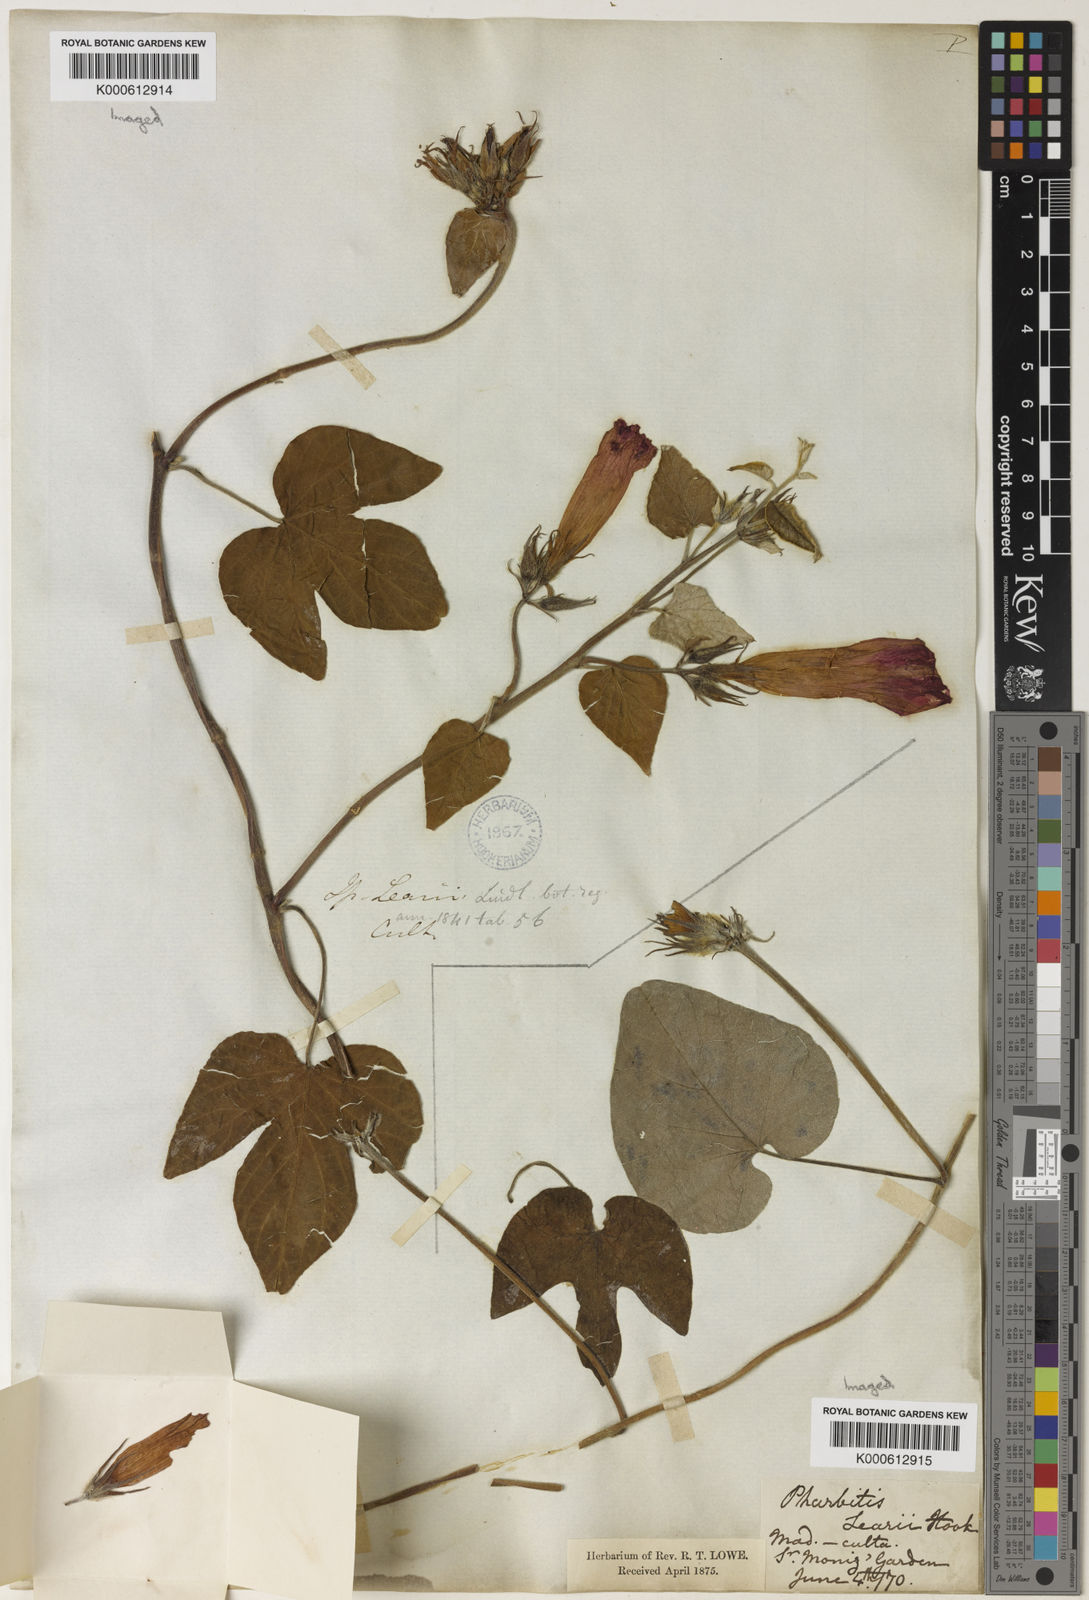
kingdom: Plantae
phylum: Tracheophyta
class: Magnoliopsida
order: Solanales
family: Convolvulaceae
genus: Ipomoea
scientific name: Ipomoea indica
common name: Blue dawnflower
